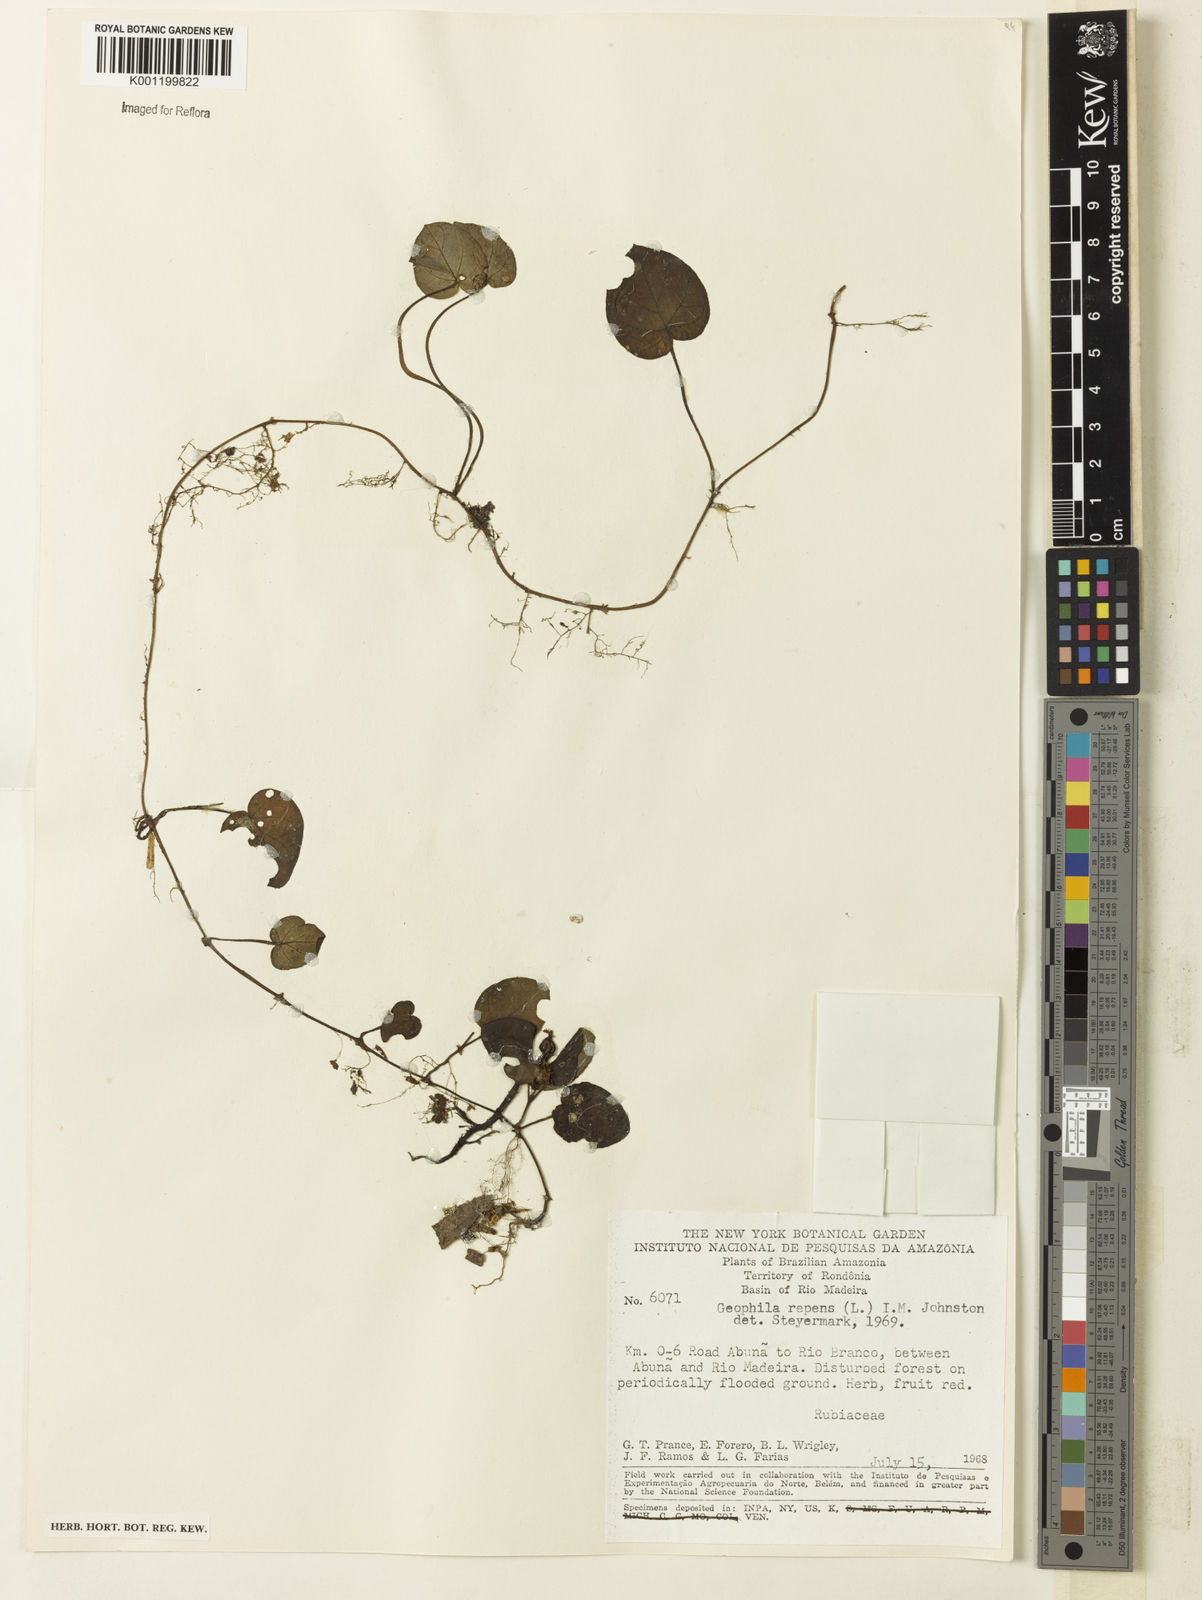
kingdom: Plantae
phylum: Tracheophyta
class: Magnoliopsida
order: Gentianales
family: Rubiaceae
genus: Geophila
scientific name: Geophila repens
